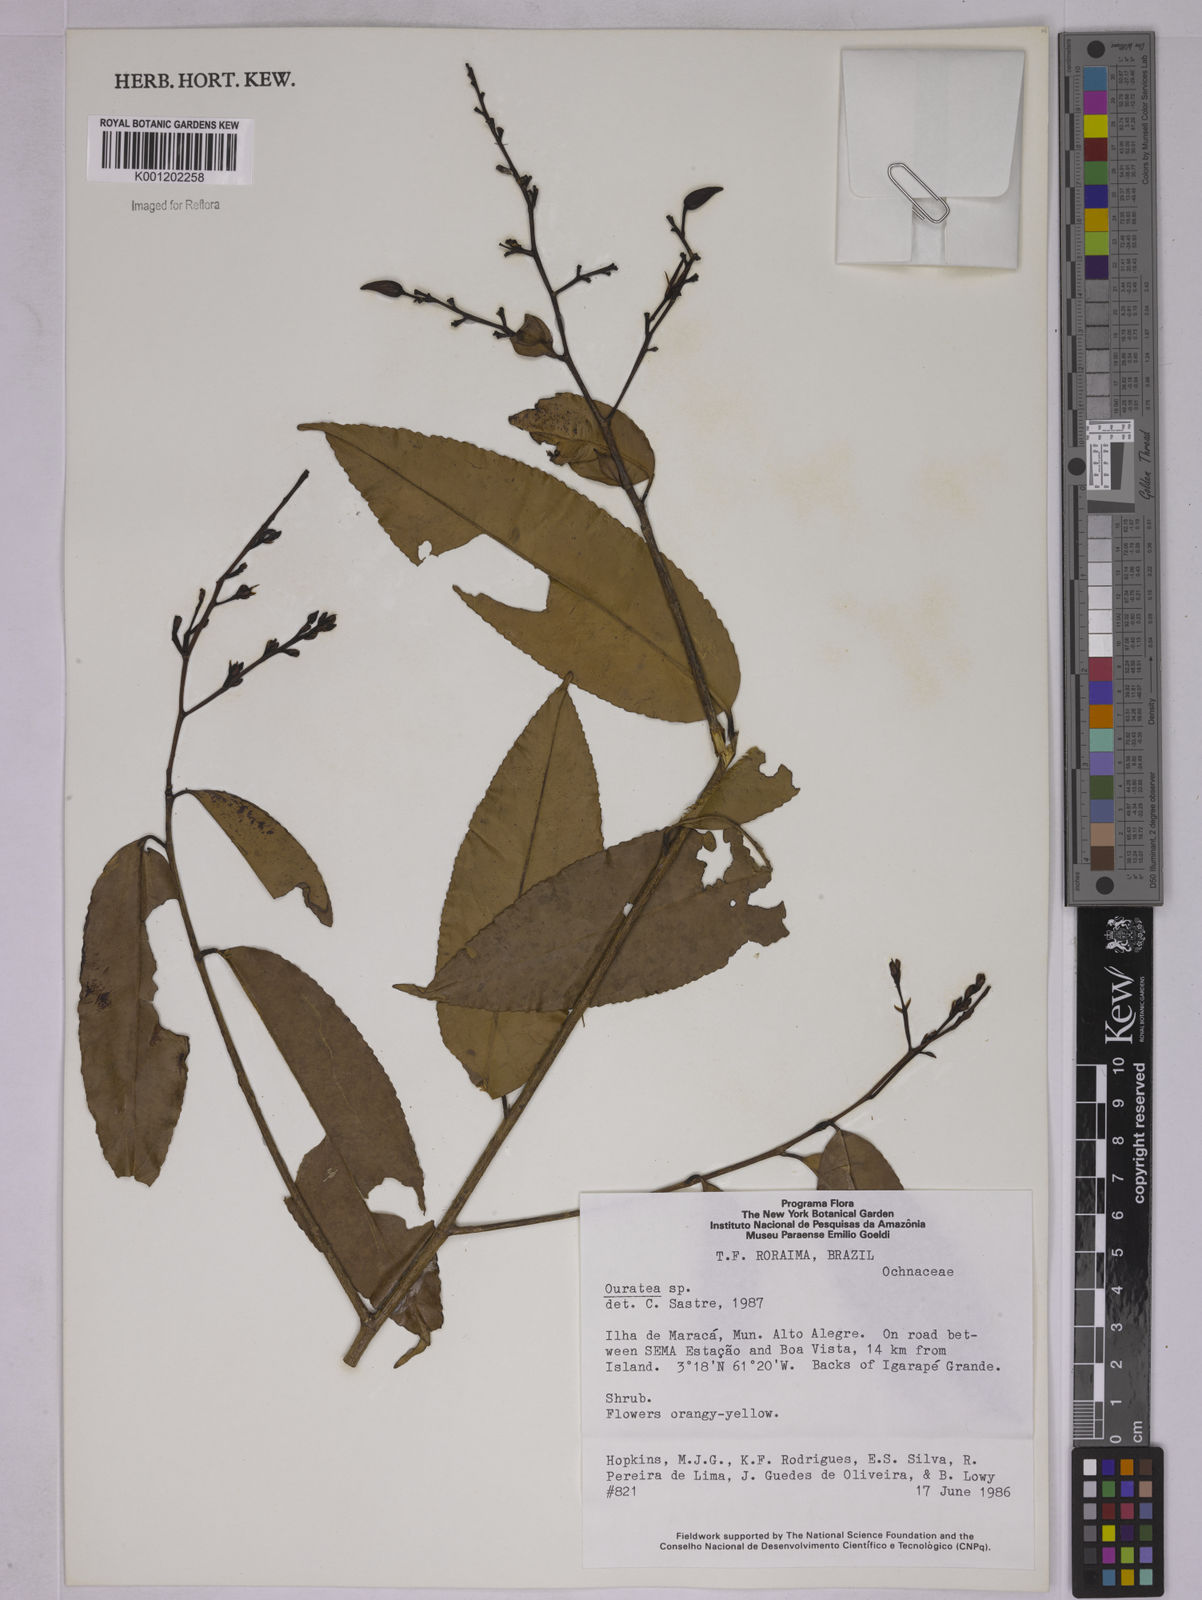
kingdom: Plantae
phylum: Tracheophyta
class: Magnoliopsida
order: Malpighiales
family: Ochnaceae
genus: Ouratea
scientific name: Ouratea
